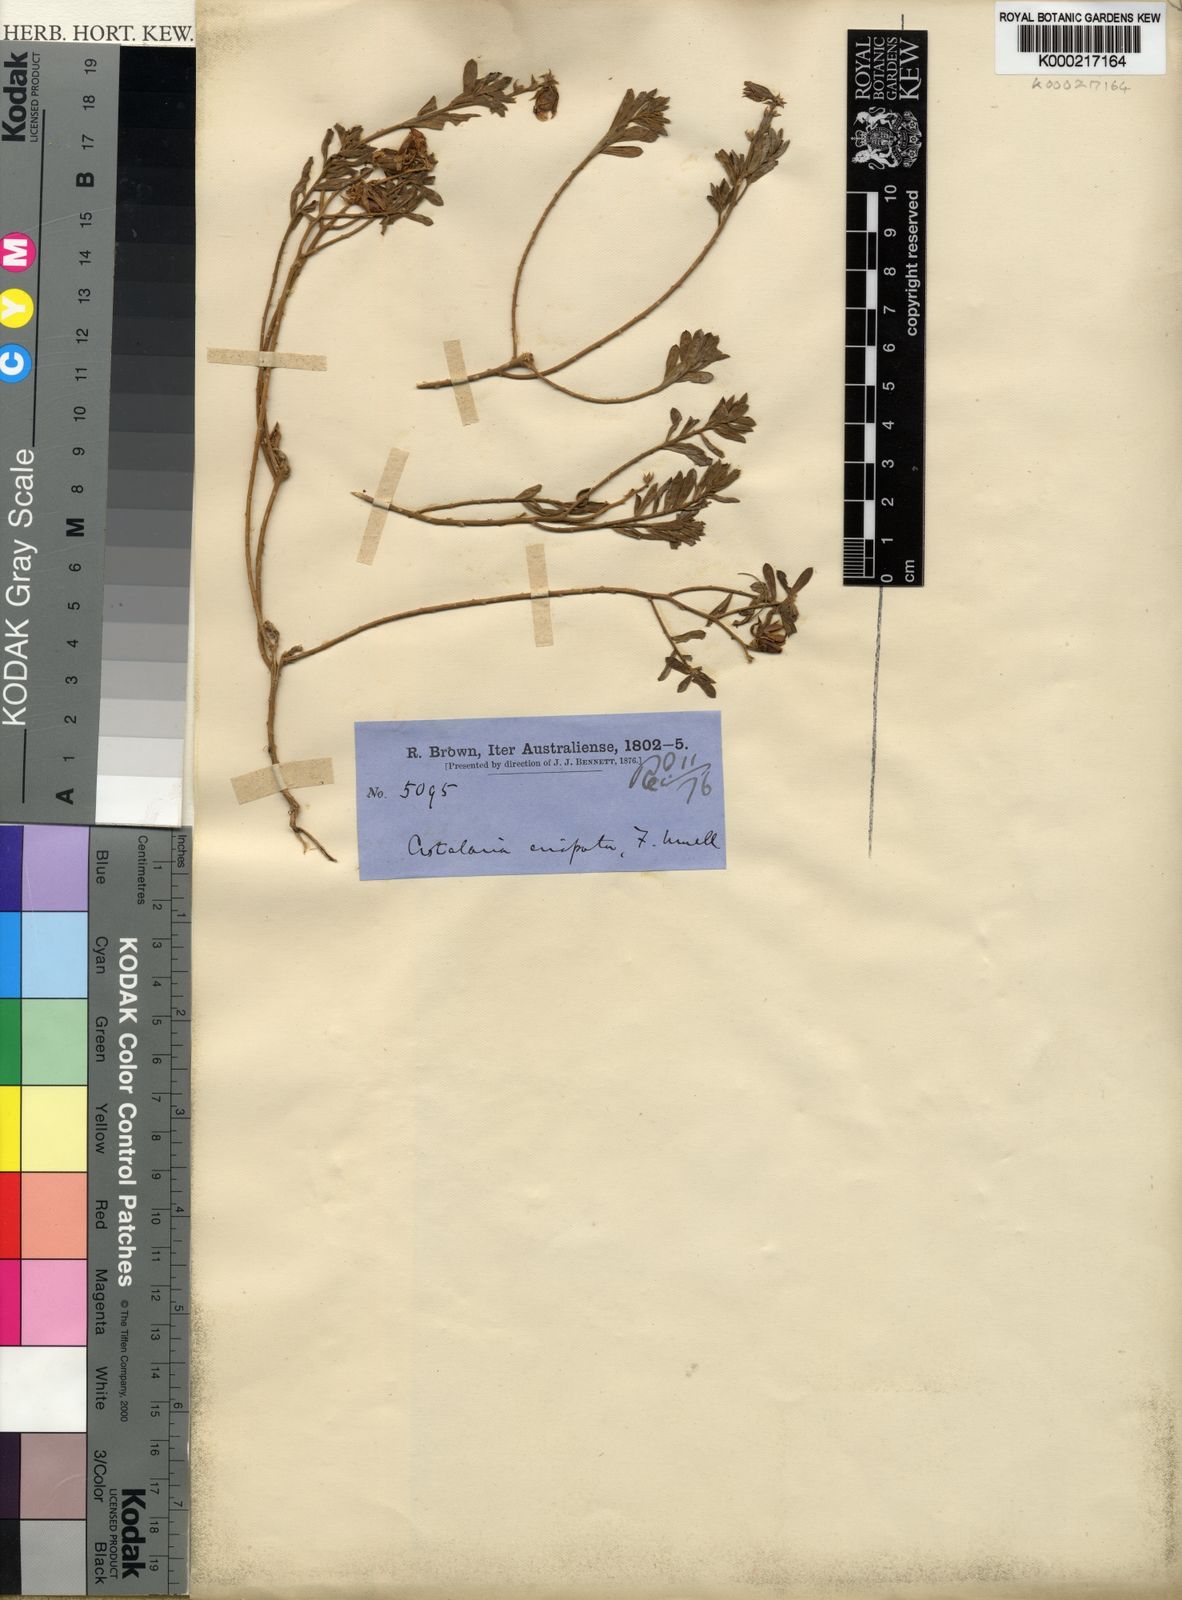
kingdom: Plantae
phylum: Tracheophyta
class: Magnoliopsida
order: Fabales
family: Fabaceae
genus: Crotalaria
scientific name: Crotalaria crispata
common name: Kimberley horse-poison
